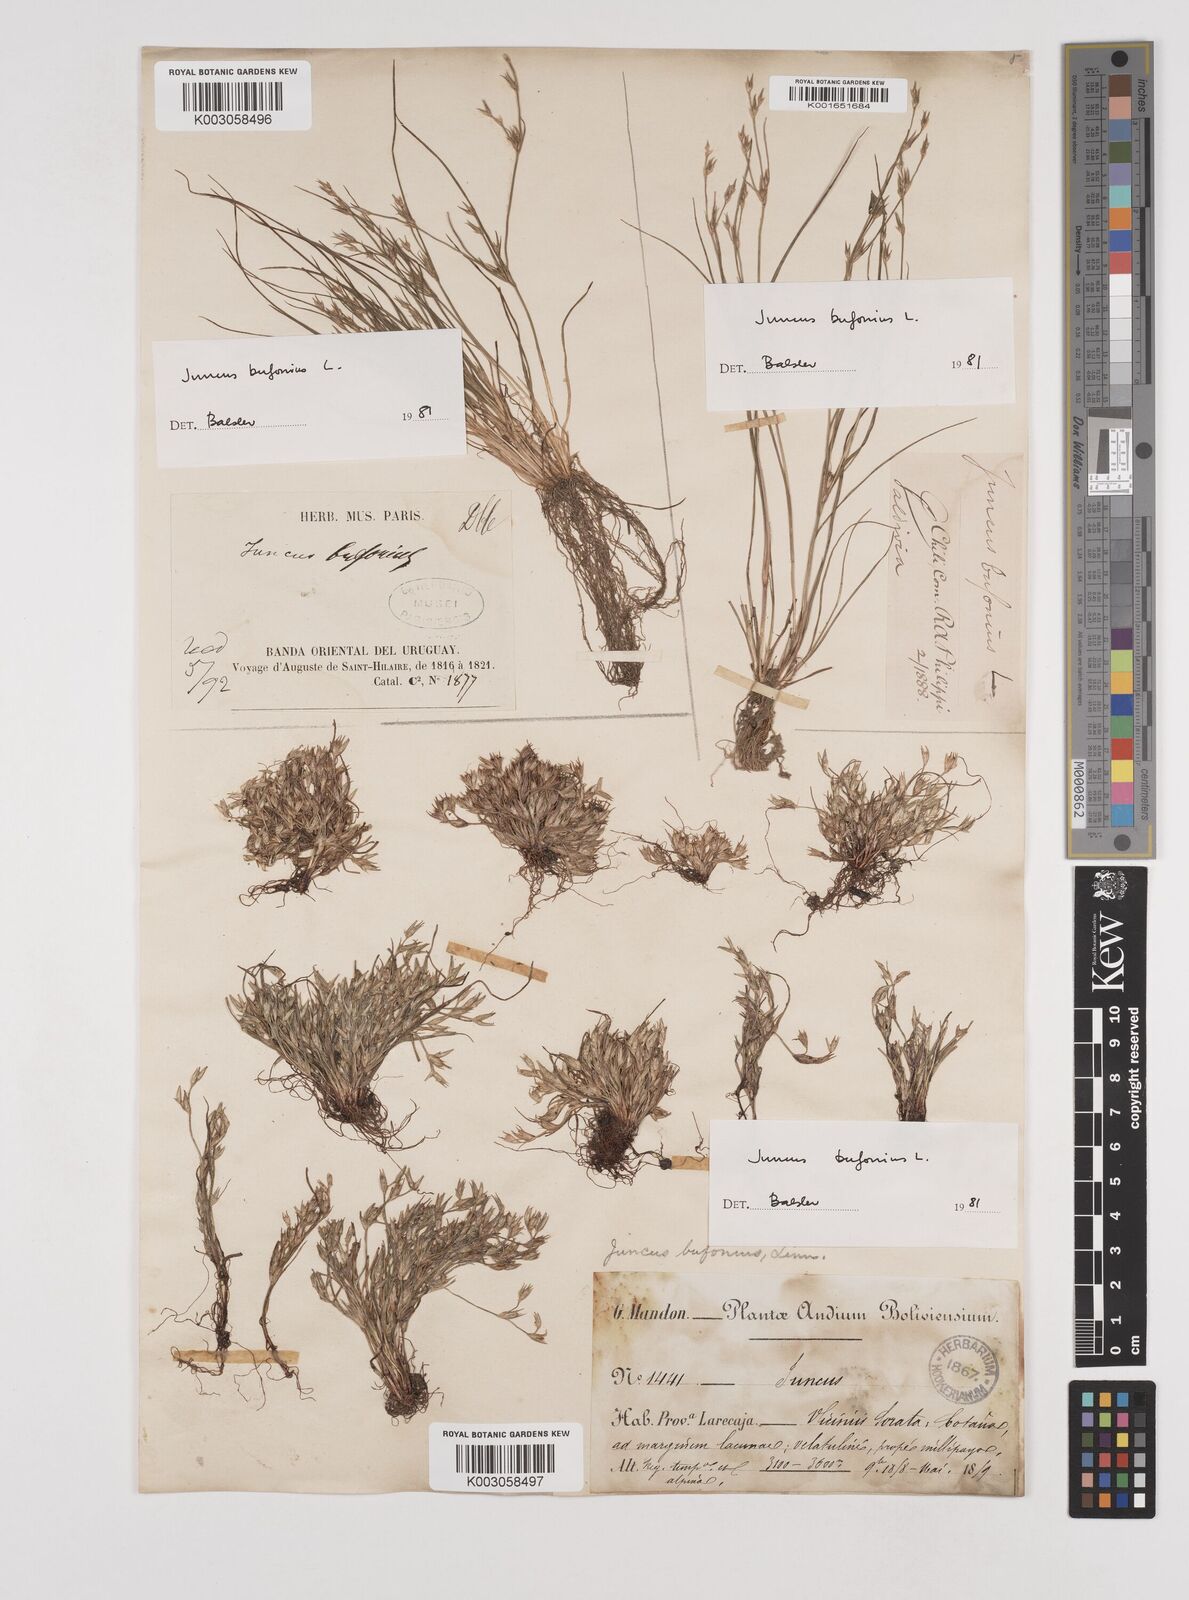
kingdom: Plantae
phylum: Tracheophyta
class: Liliopsida
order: Poales
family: Juncaceae
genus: Juncus
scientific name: Juncus bufonius
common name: Toad rush
